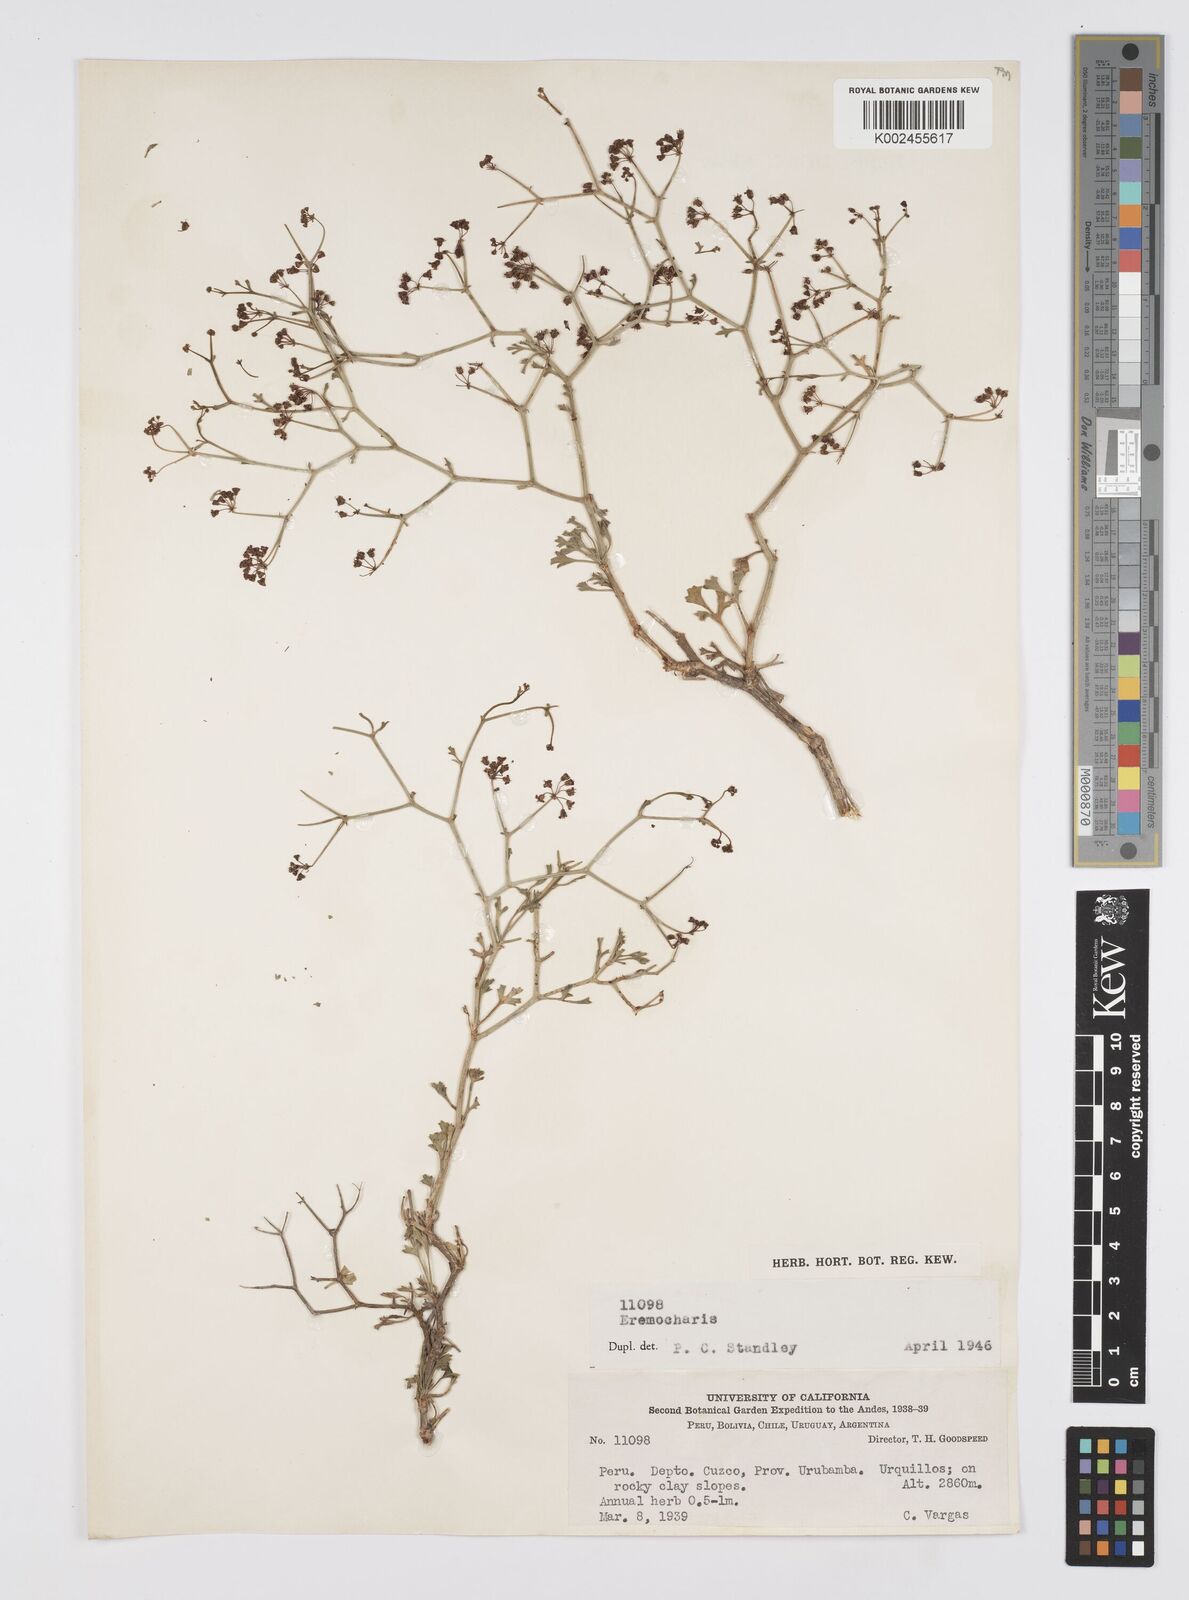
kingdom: Plantae
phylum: Tracheophyta
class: Magnoliopsida
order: Apiales
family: Apiaceae
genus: Eremocharis
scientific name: Eremocharis
